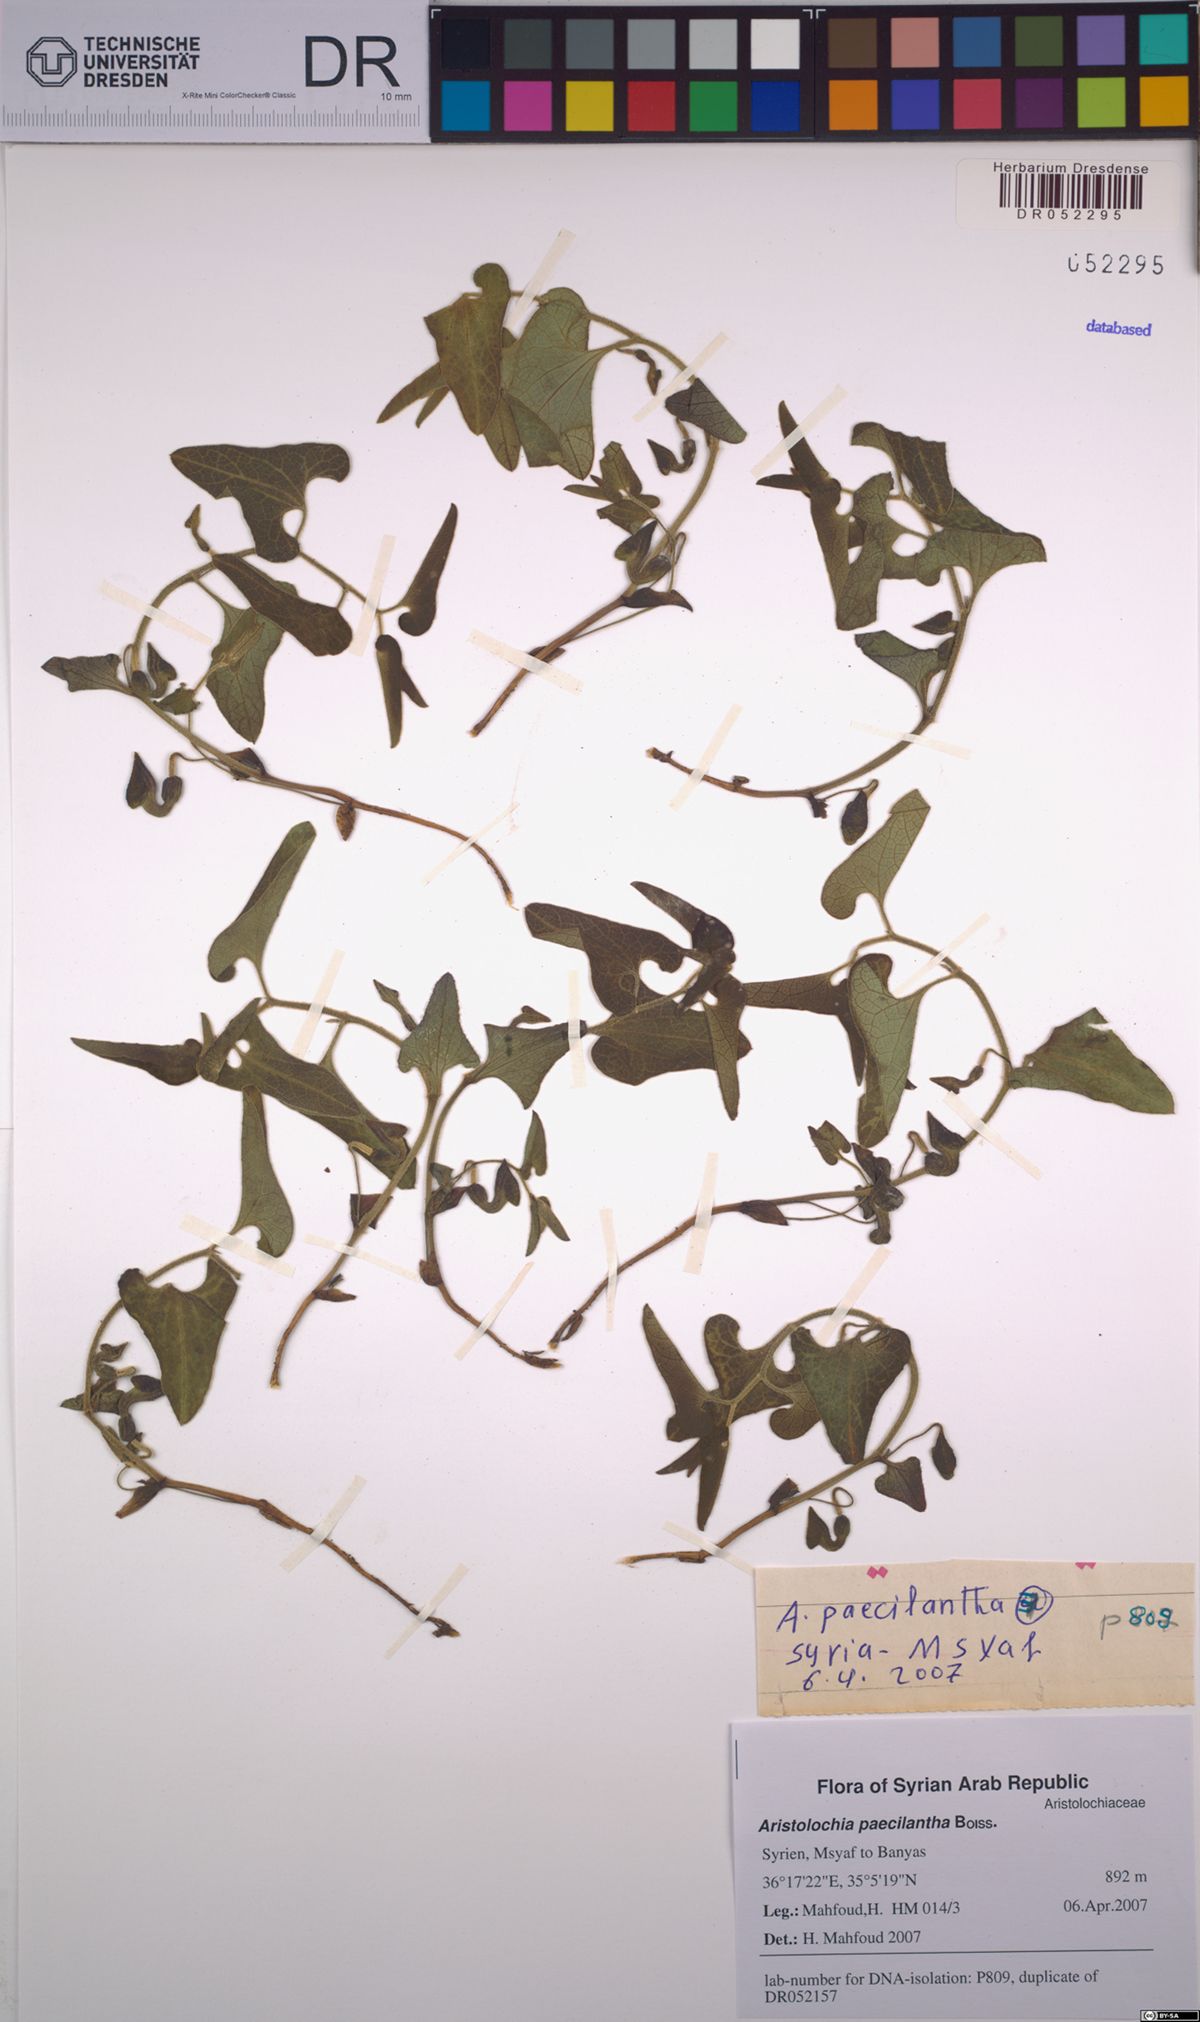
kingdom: Plantae
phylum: Tracheophyta
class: Magnoliopsida
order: Piperales
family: Aristolochiaceae
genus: Aristolochia
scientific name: Aristolochia paecilantha
